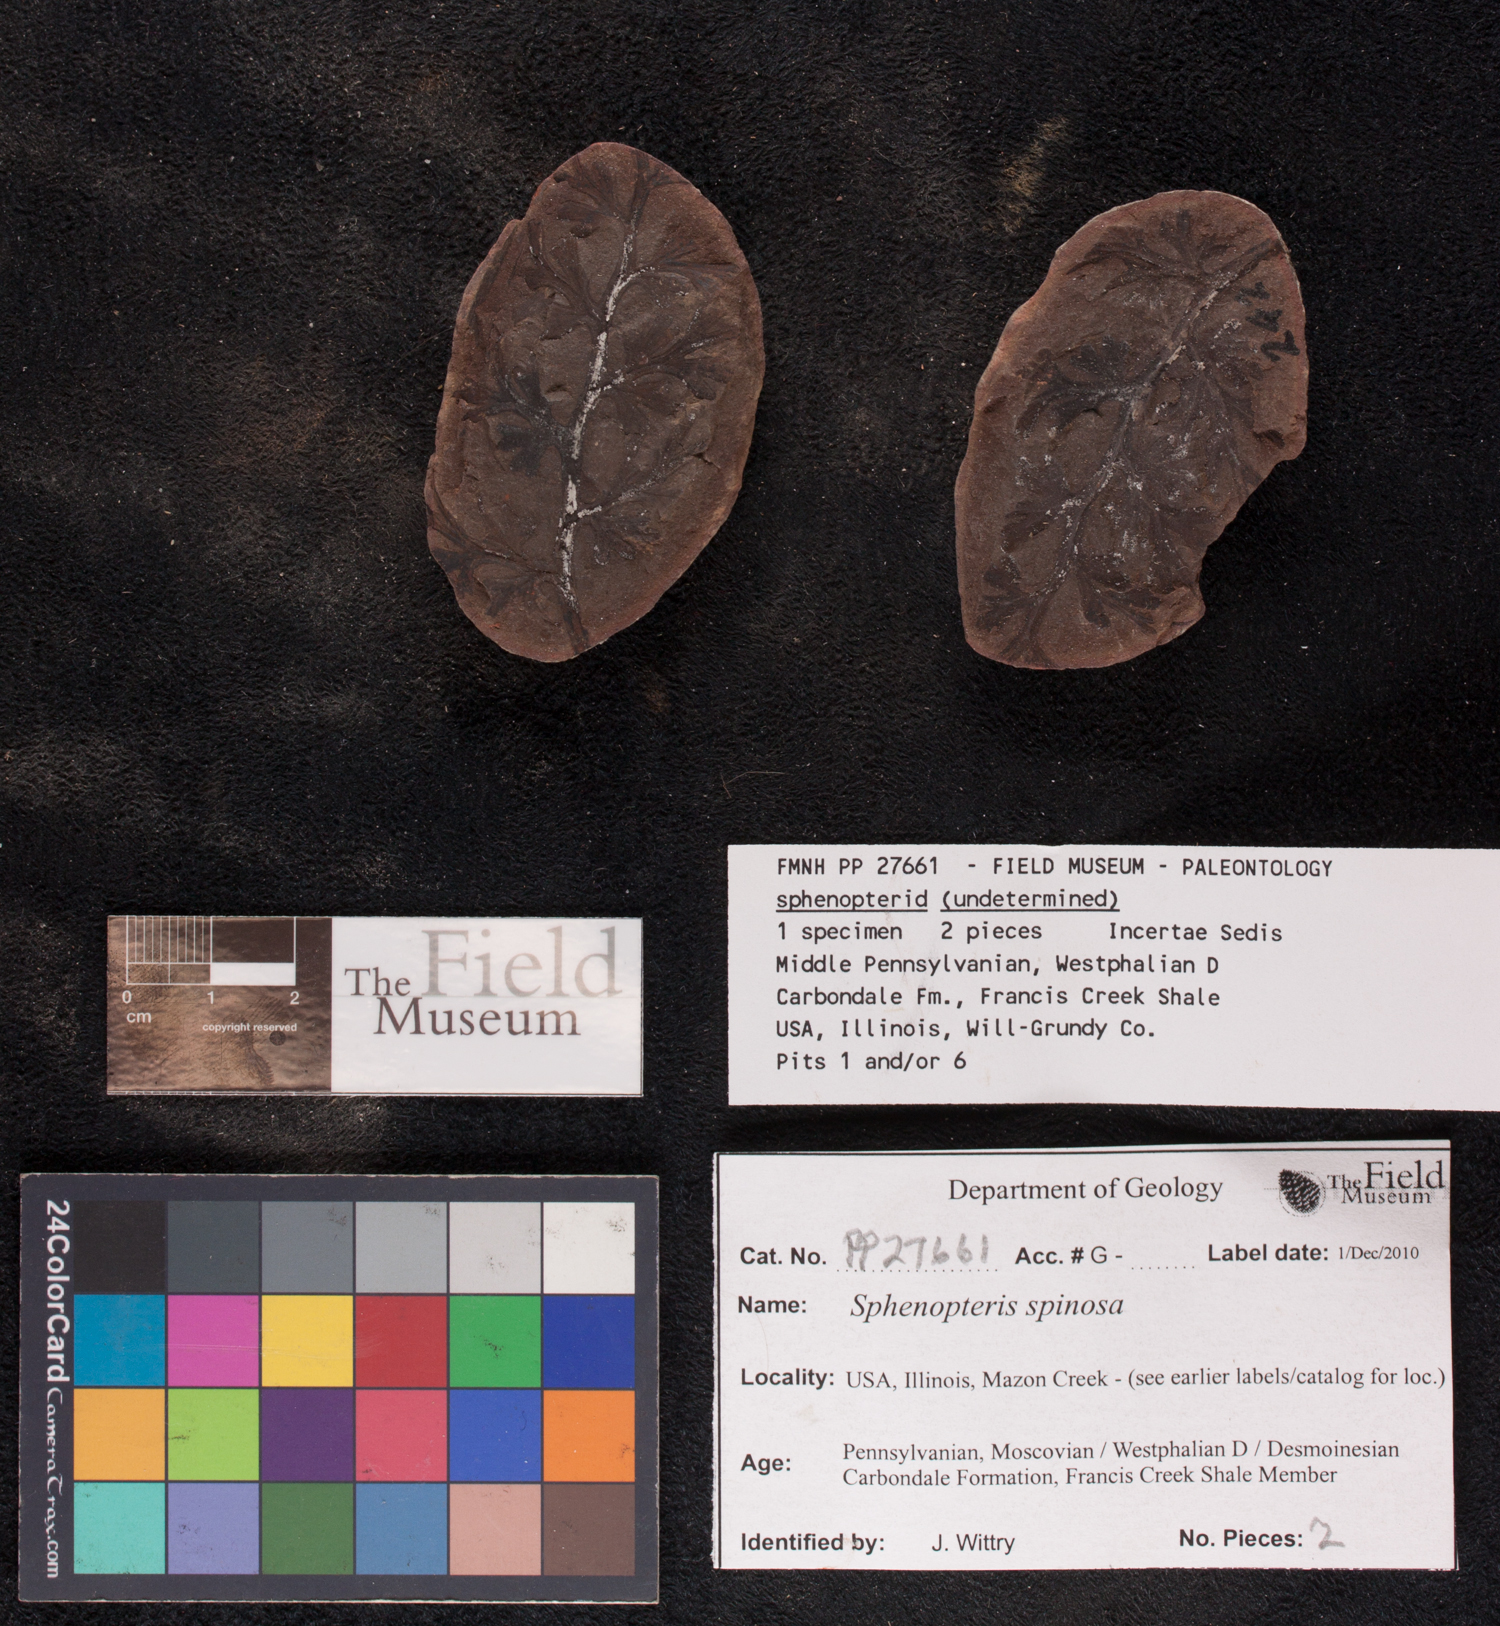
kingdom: Plantae
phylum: Tracheophyta
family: Lyginopteridaceae
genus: Sphenopteris
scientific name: Sphenopteris
